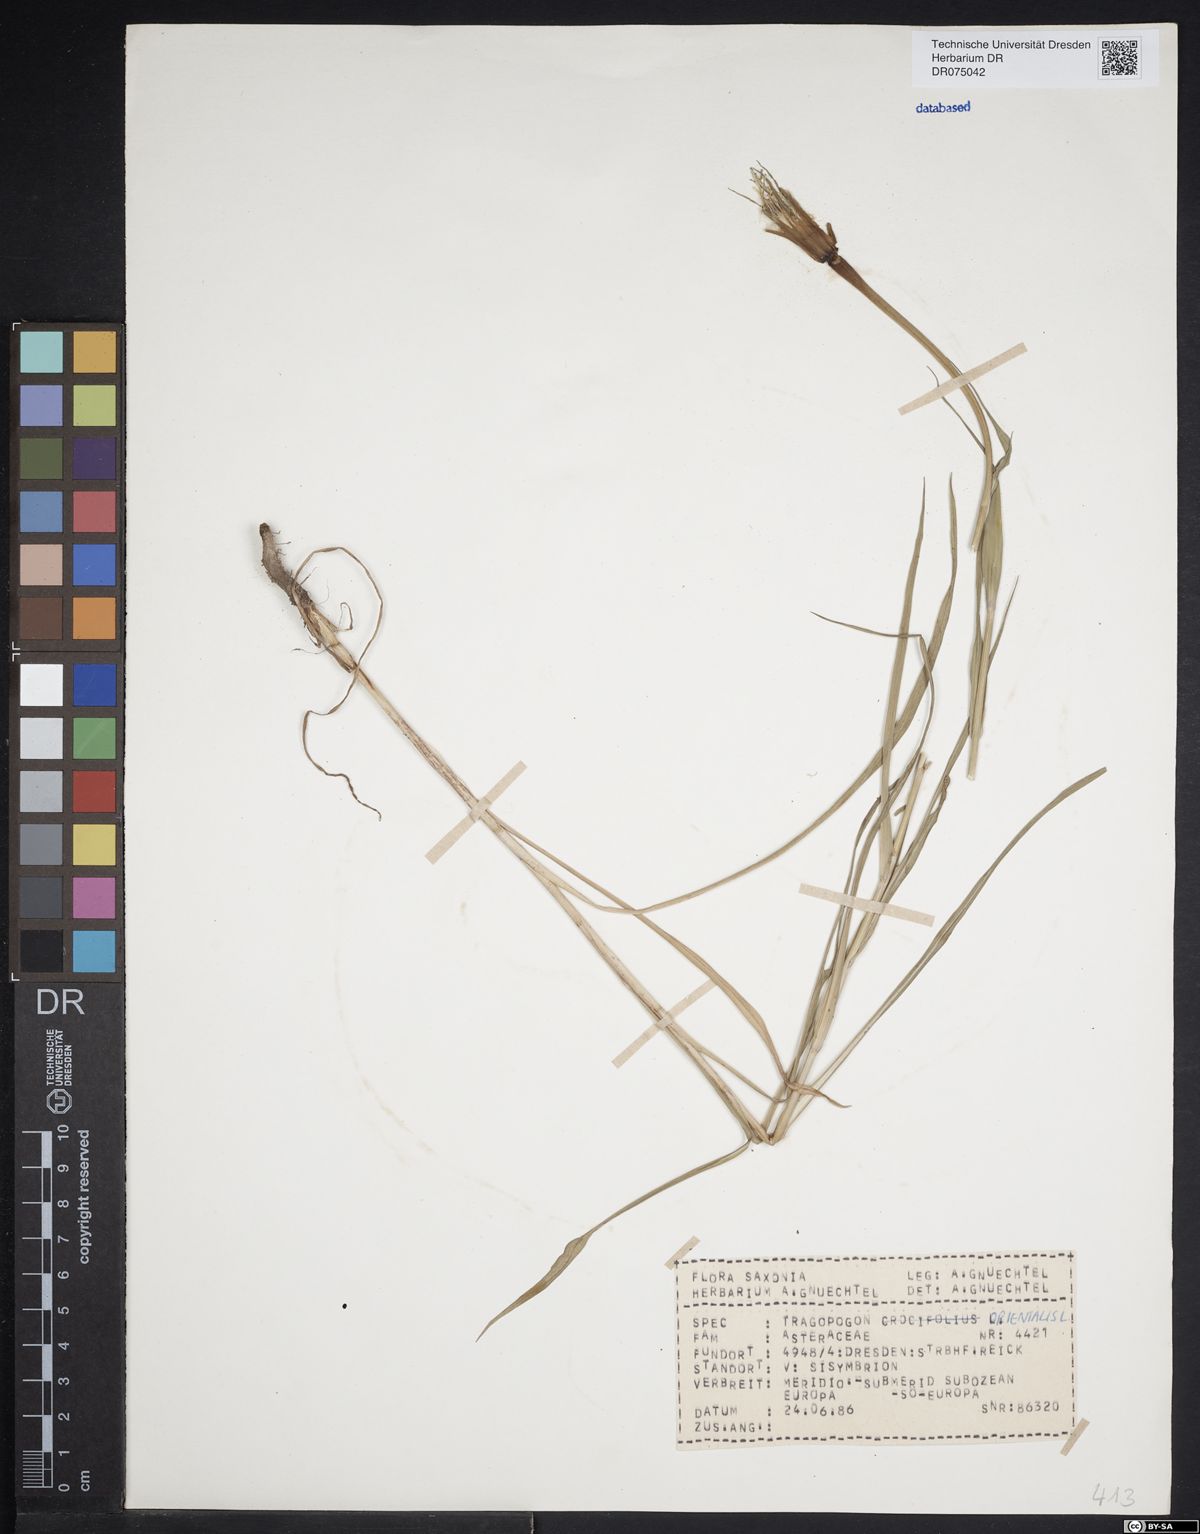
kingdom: Plantae
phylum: Tracheophyta
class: Magnoliopsida
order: Asterales
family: Asteraceae
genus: Tragopogon
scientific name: Tragopogon orientalis
